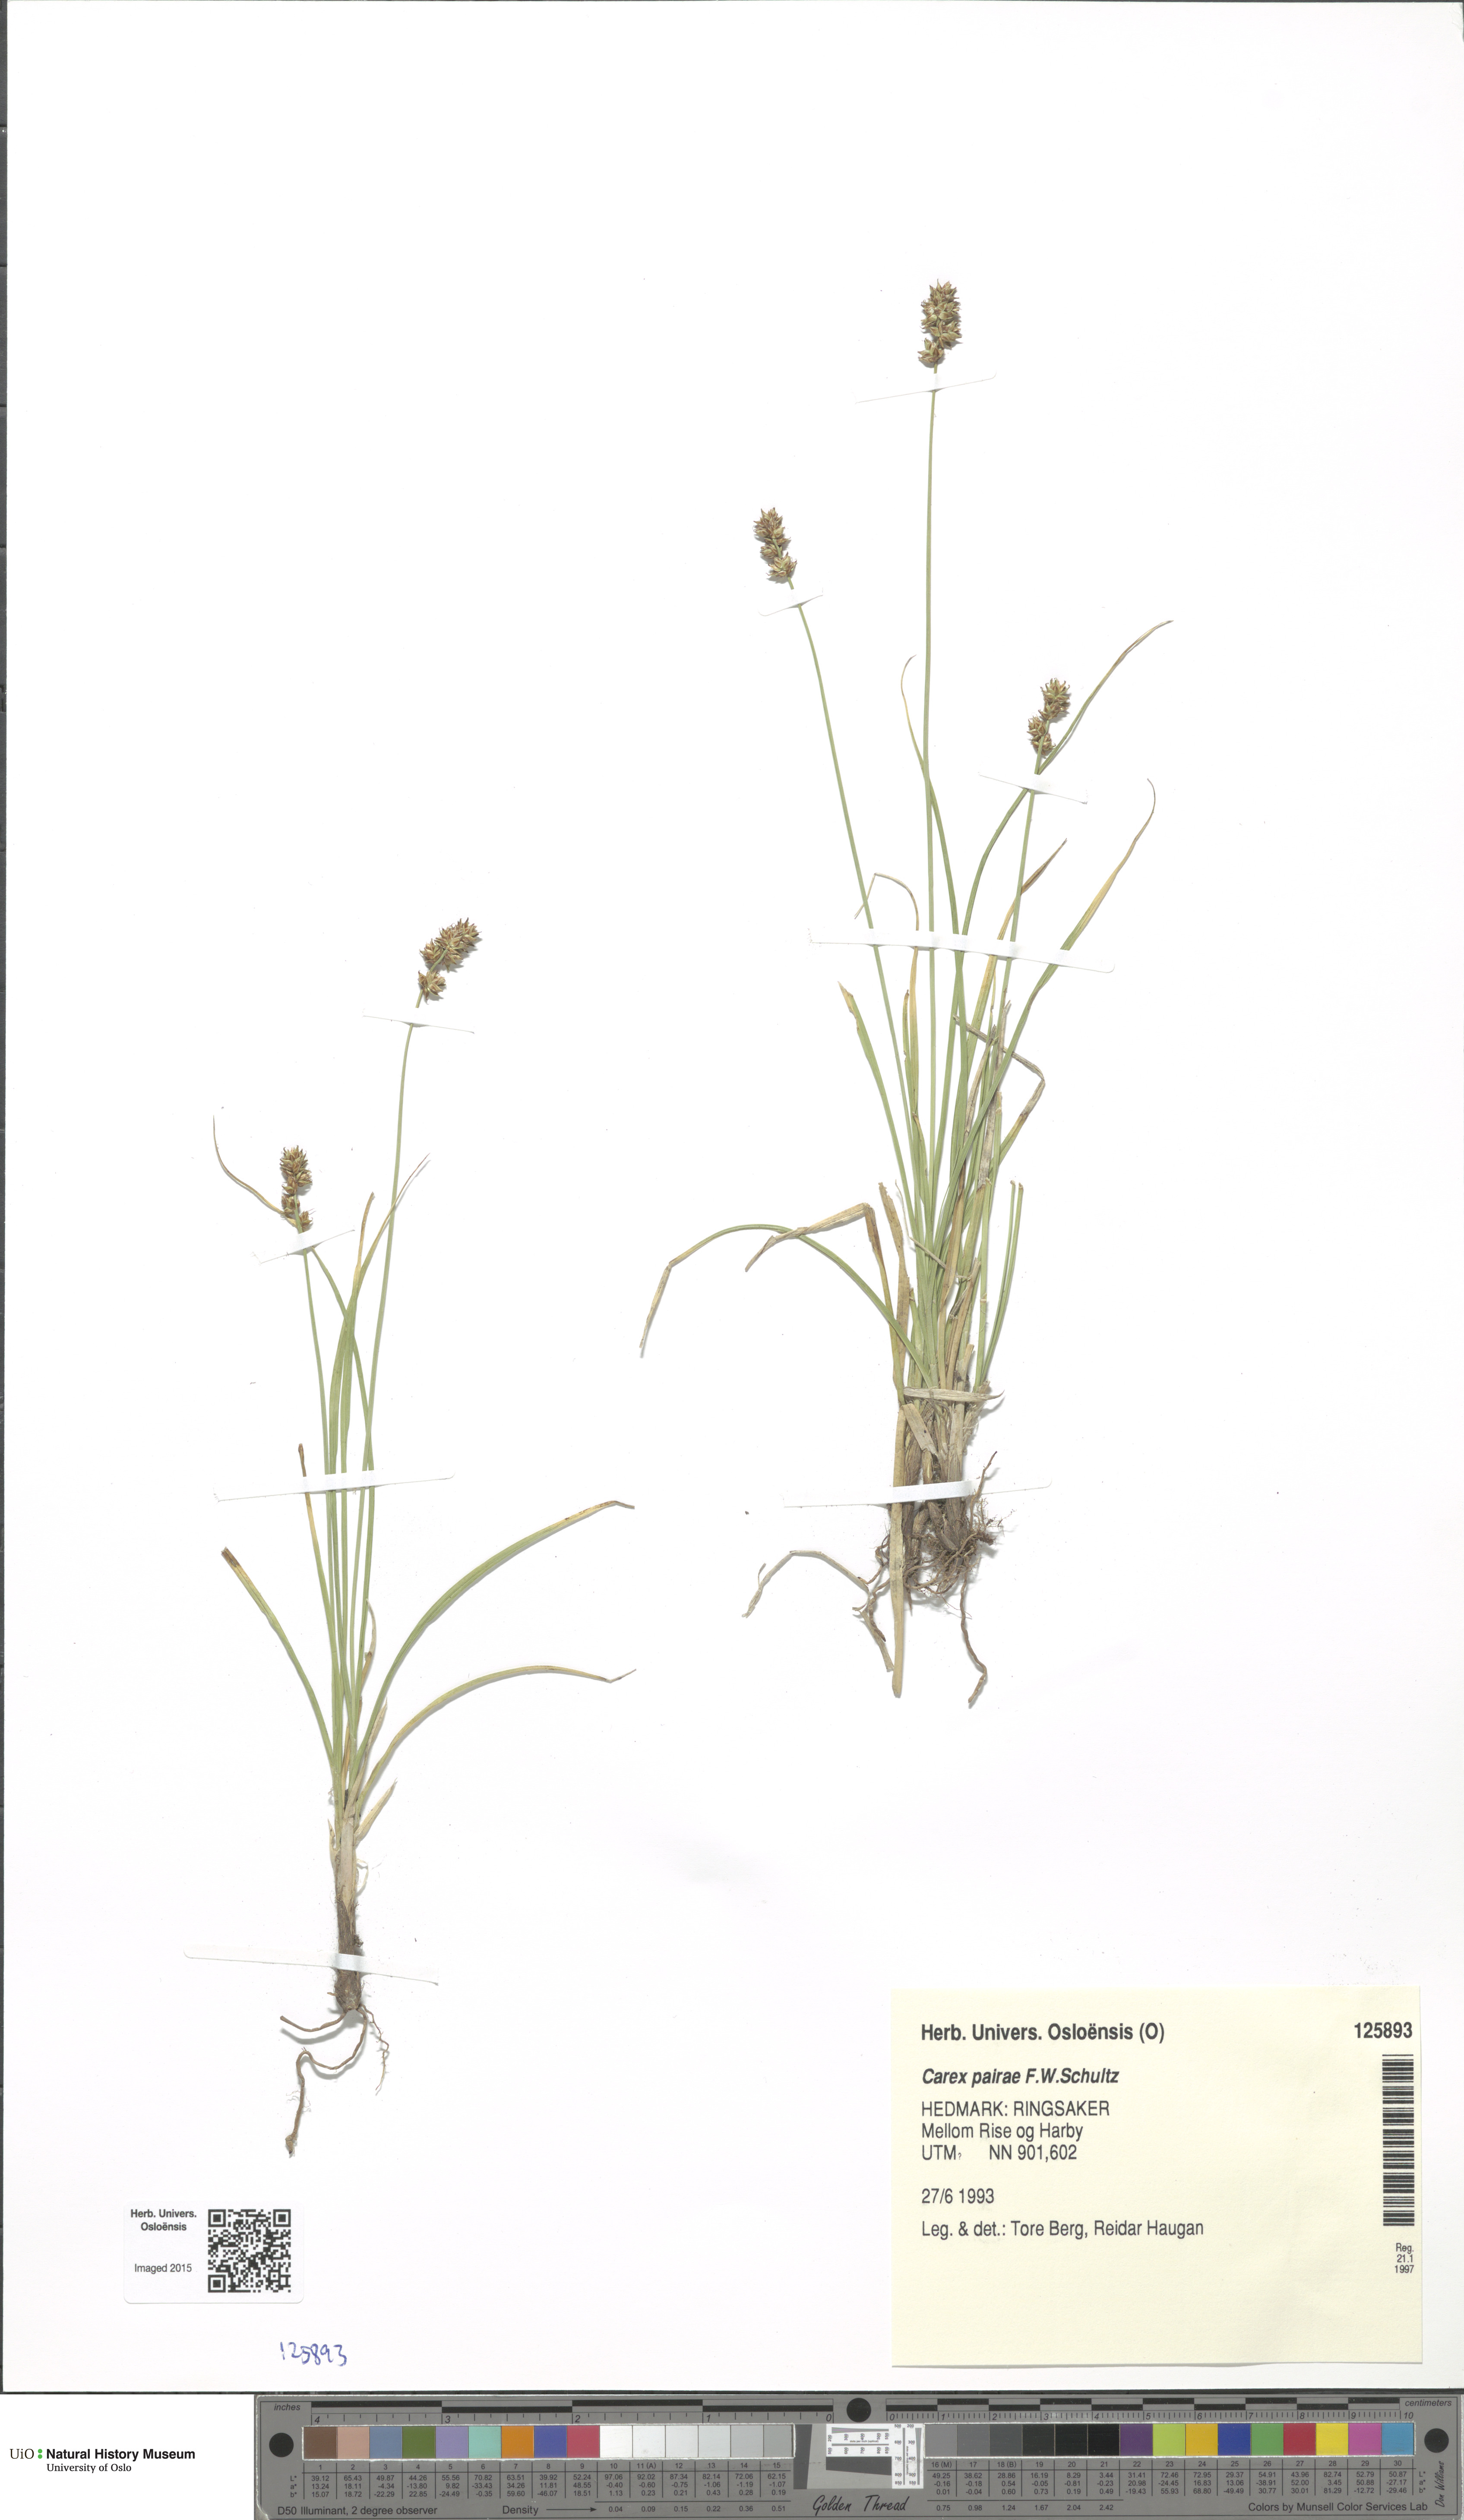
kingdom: Plantae
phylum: Tracheophyta
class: Liliopsida
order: Poales
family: Cyperaceae
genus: Carex
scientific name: Carex pairae
